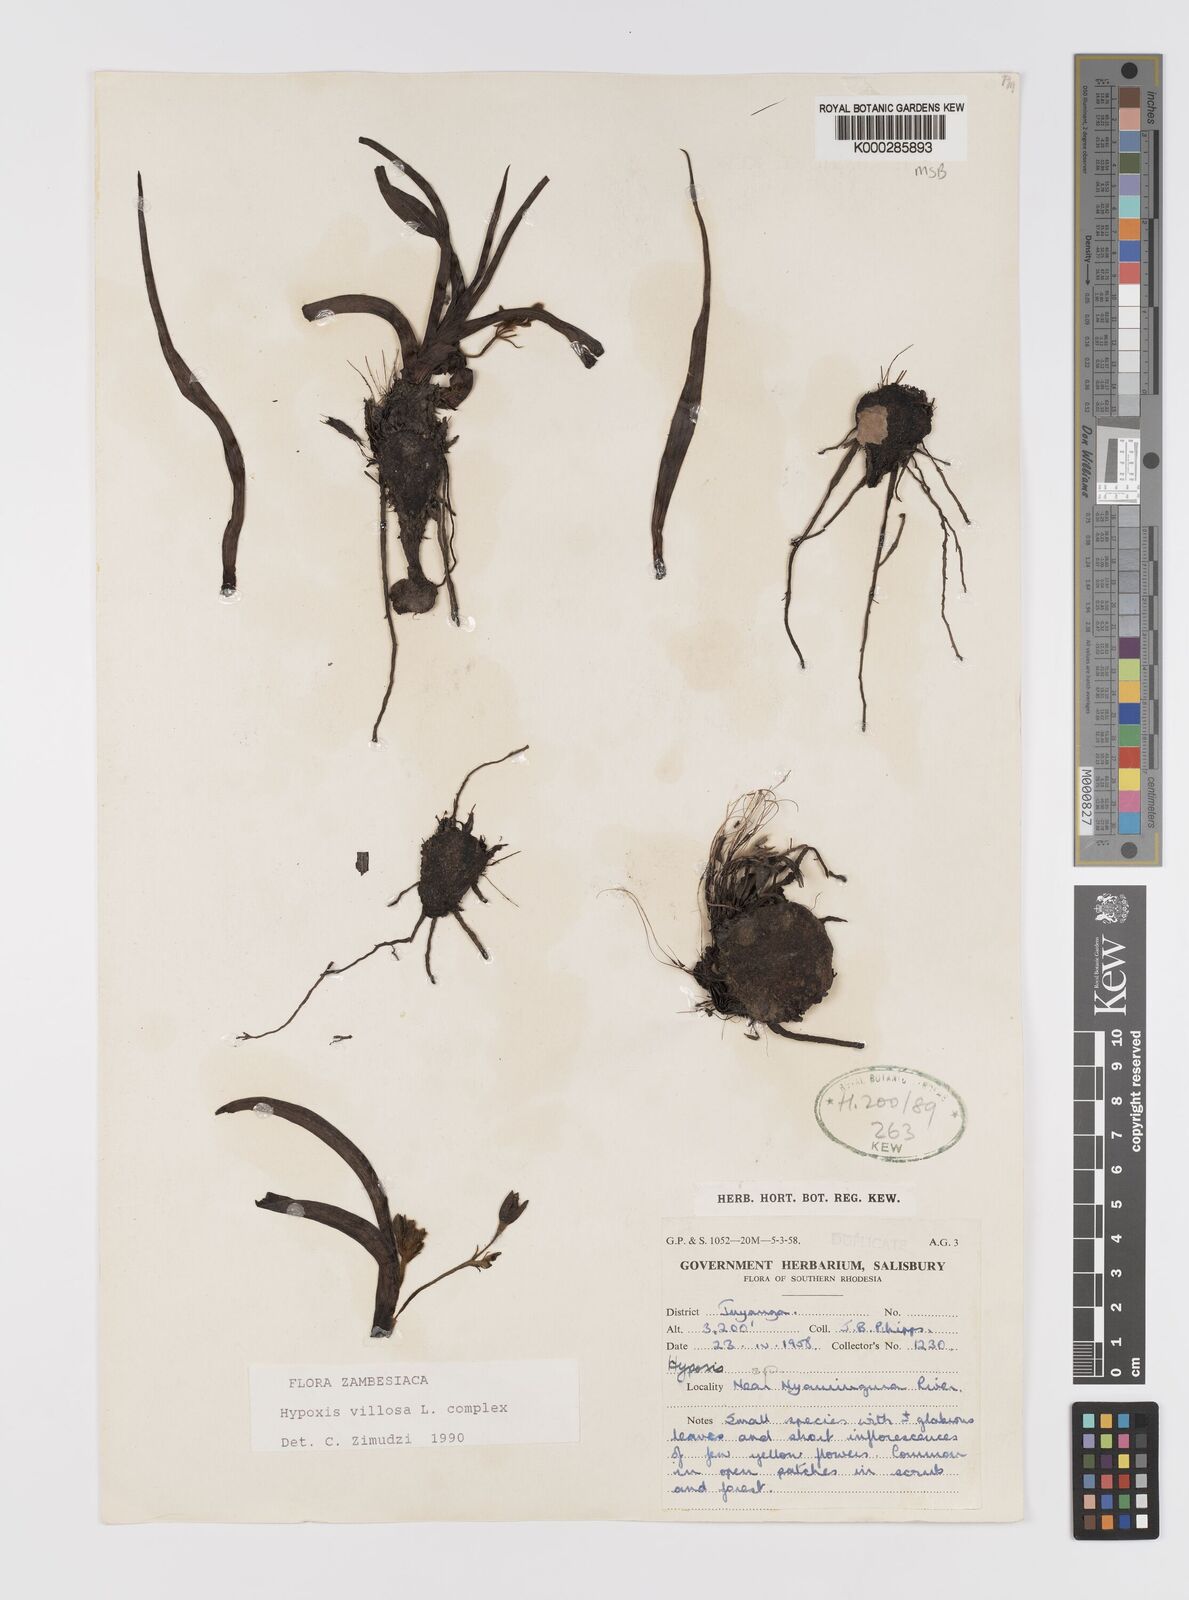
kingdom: Plantae
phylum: Tracheophyta
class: Liliopsida
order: Asparagales
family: Hypoxidaceae
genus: Hypoxis
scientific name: Hypoxis
